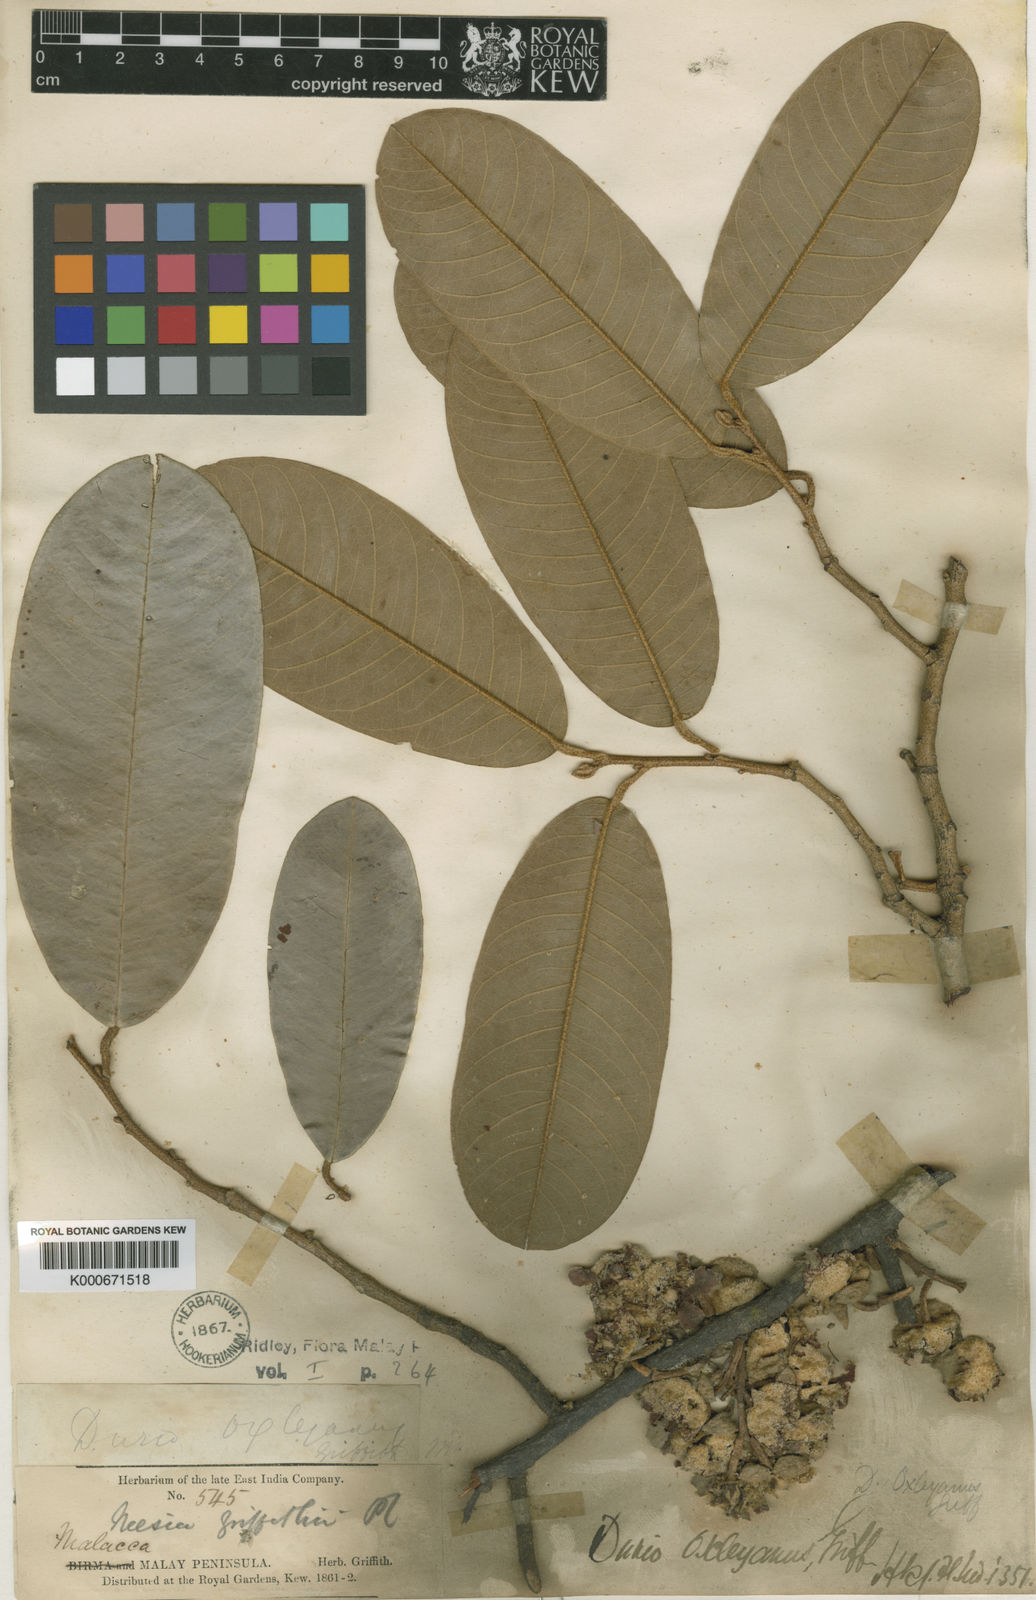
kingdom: Plantae
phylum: Tracheophyta
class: Magnoliopsida
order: Malvales
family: Malvaceae
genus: Durio
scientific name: Durio oxleyanus
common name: Durian
